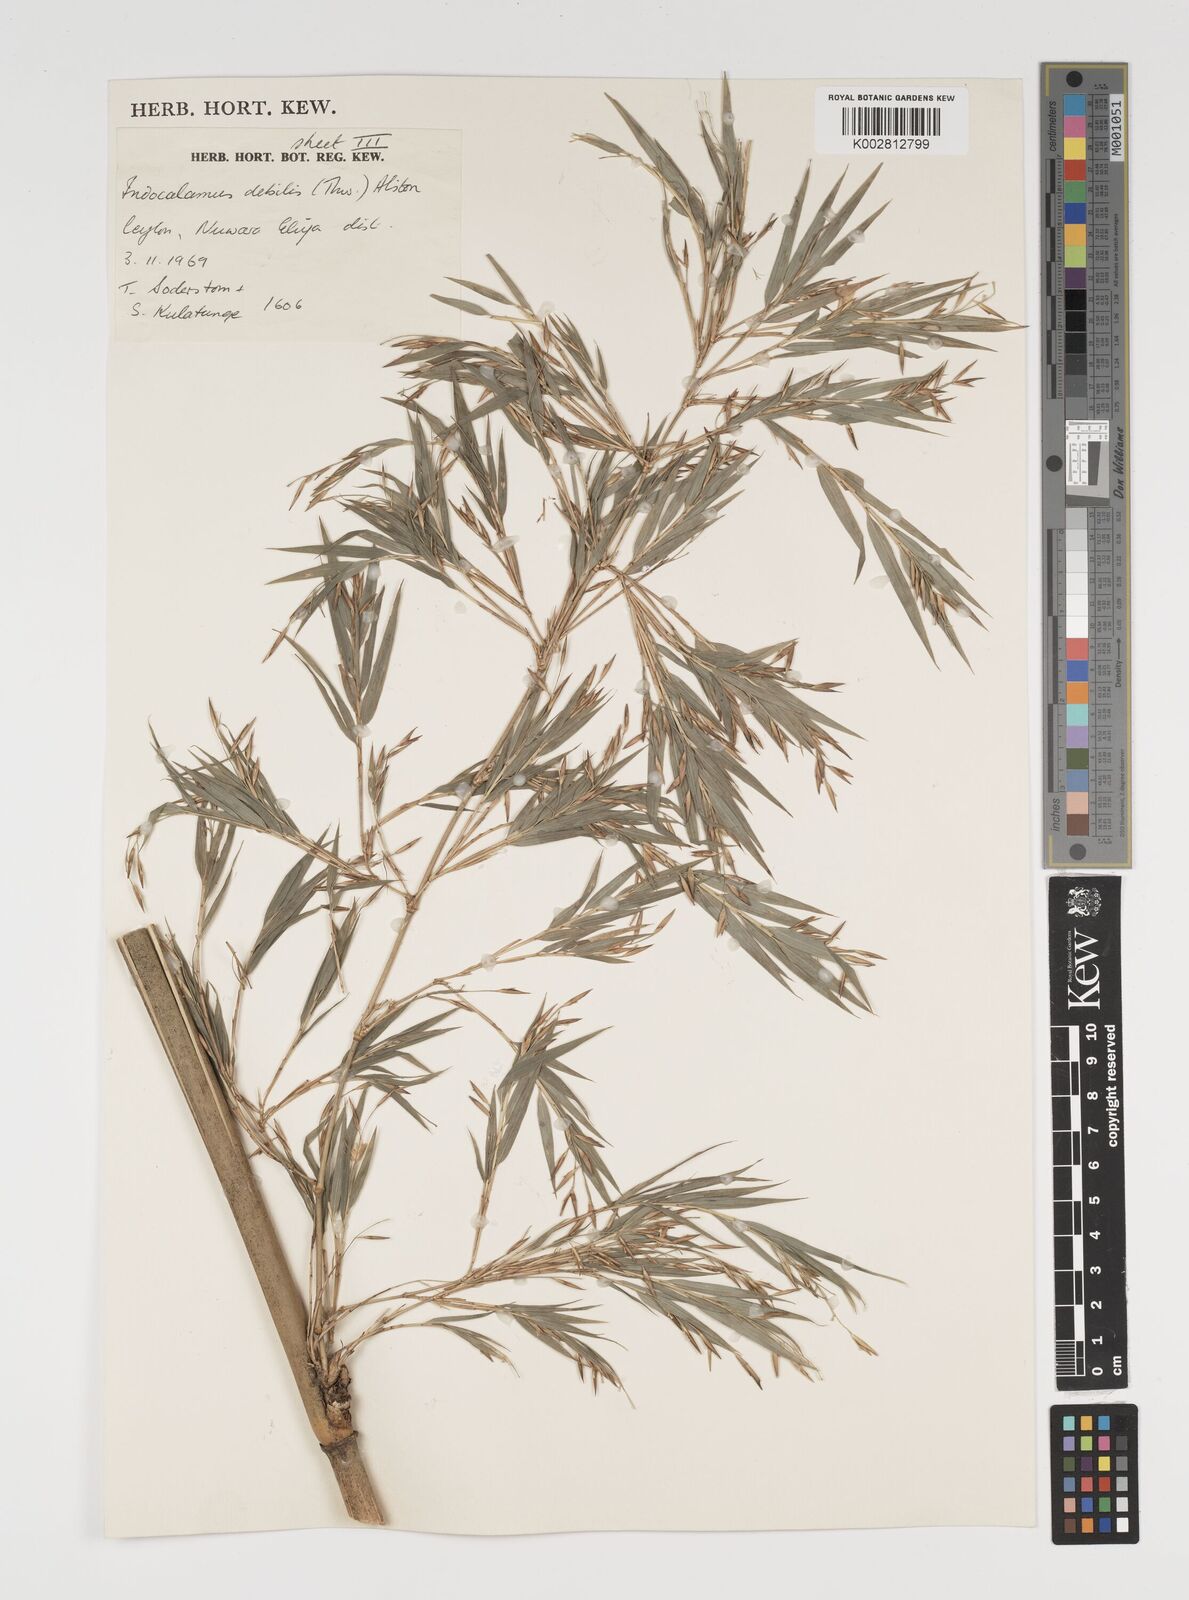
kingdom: Plantae
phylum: Tracheophyta
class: Liliopsida
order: Poales
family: Poaceae
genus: Kuruna
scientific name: Kuruna debilis
